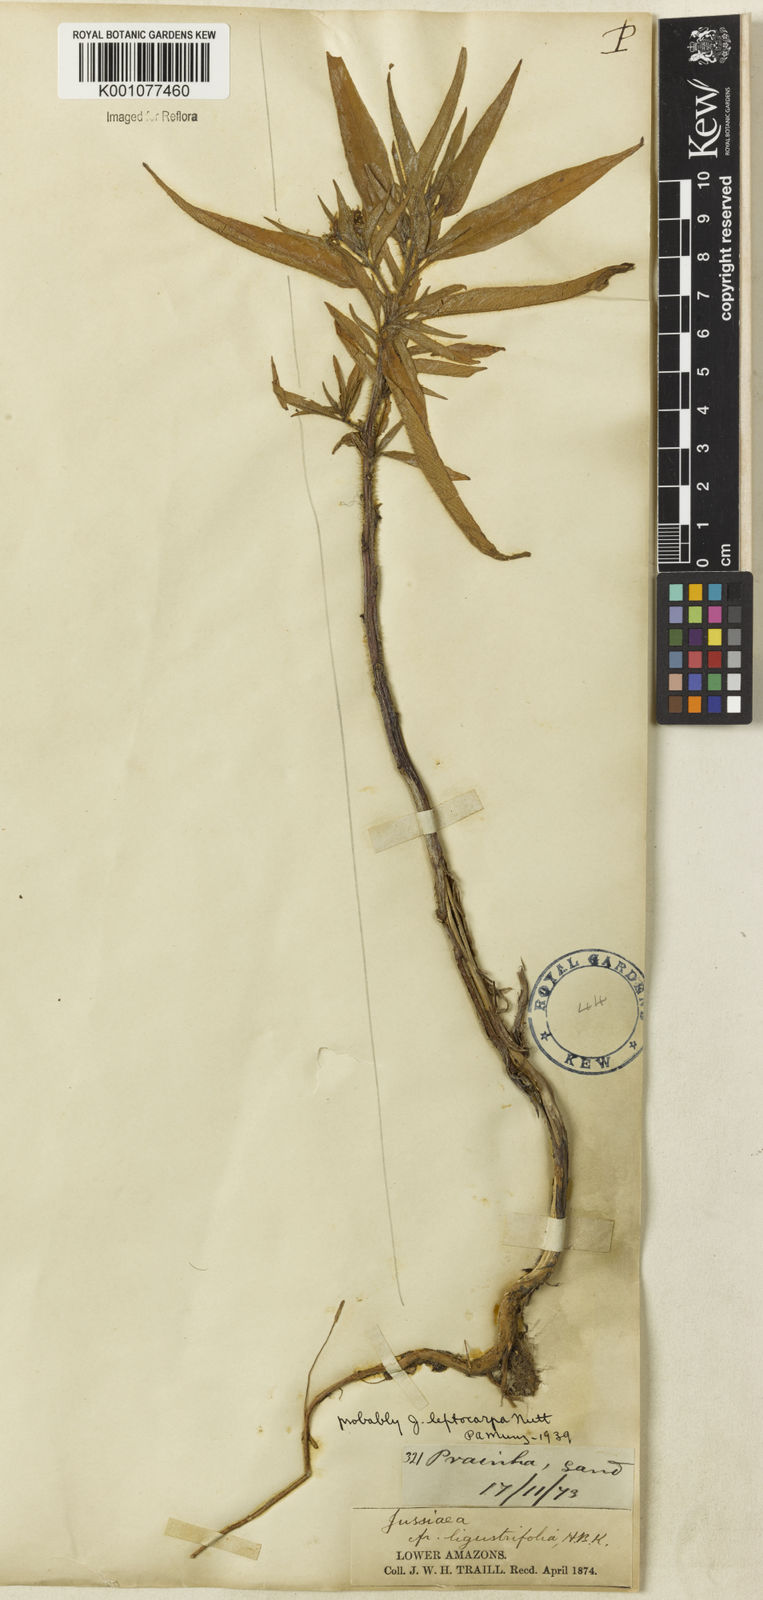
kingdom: Plantae
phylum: Tracheophyta
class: Magnoliopsida
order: Myrtales
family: Onagraceae
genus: Ludwigia
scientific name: Ludwigia leptocarpa
